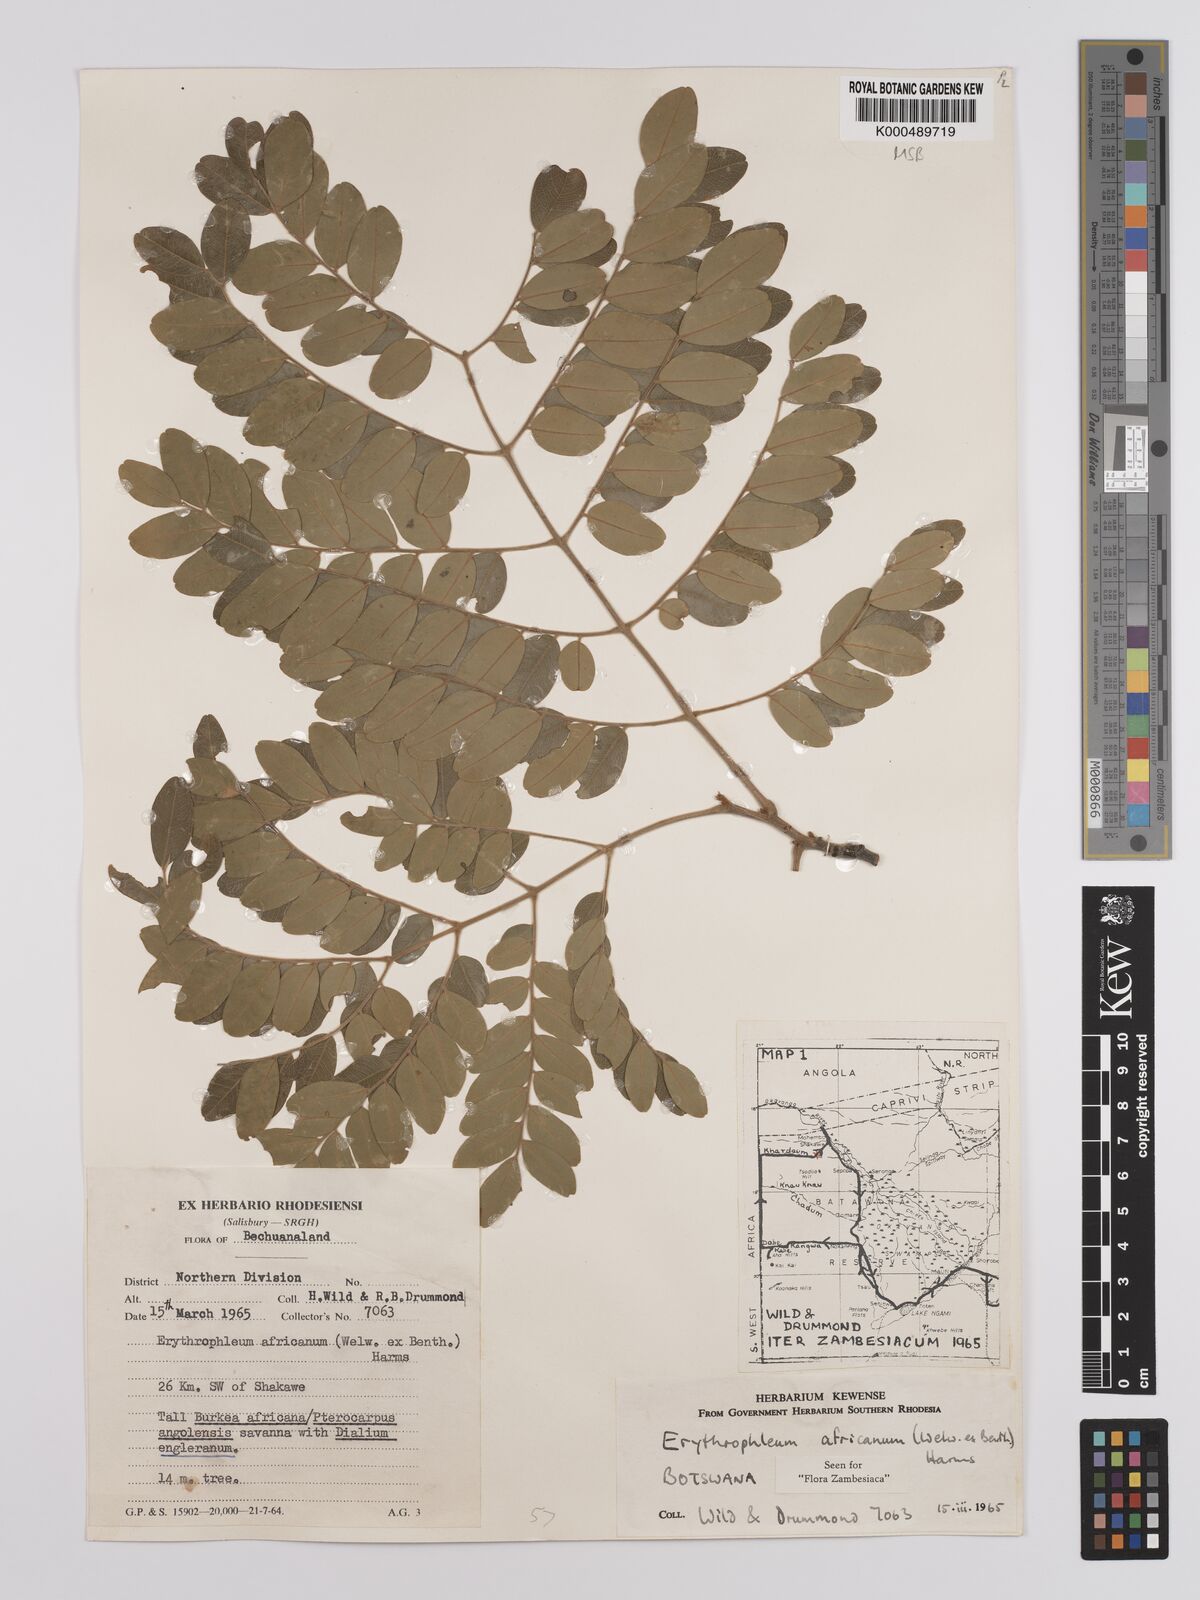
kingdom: Plantae
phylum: Tracheophyta
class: Magnoliopsida
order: Fabales
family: Fabaceae
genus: Erythrophleum
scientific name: Erythrophleum africanum
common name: African blackwood
